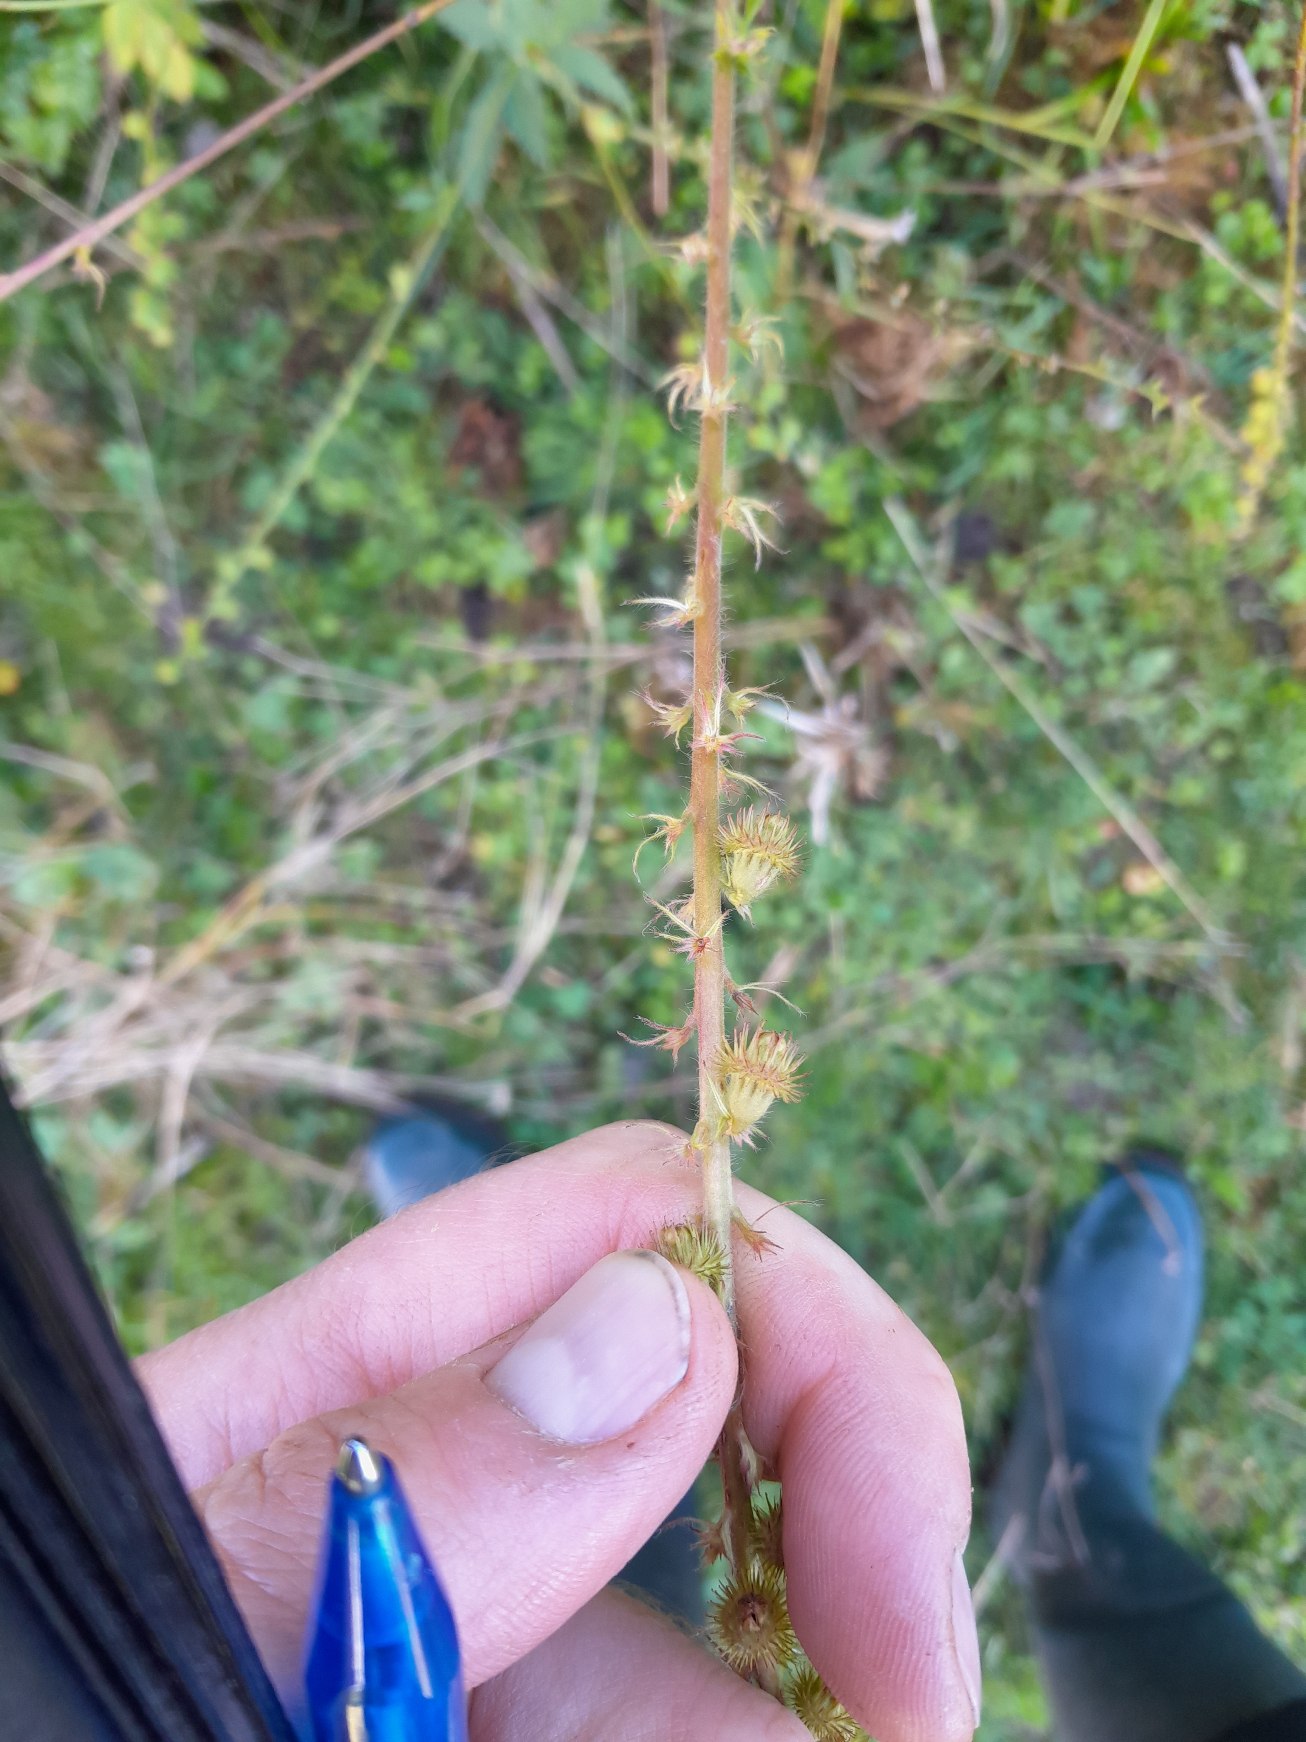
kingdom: Plantae
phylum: Tracheophyta
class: Magnoliopsida
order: Rosales
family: Rosaceae
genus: Agrimonia
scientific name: Agrimonia procera
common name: Vellugtende agermåne
